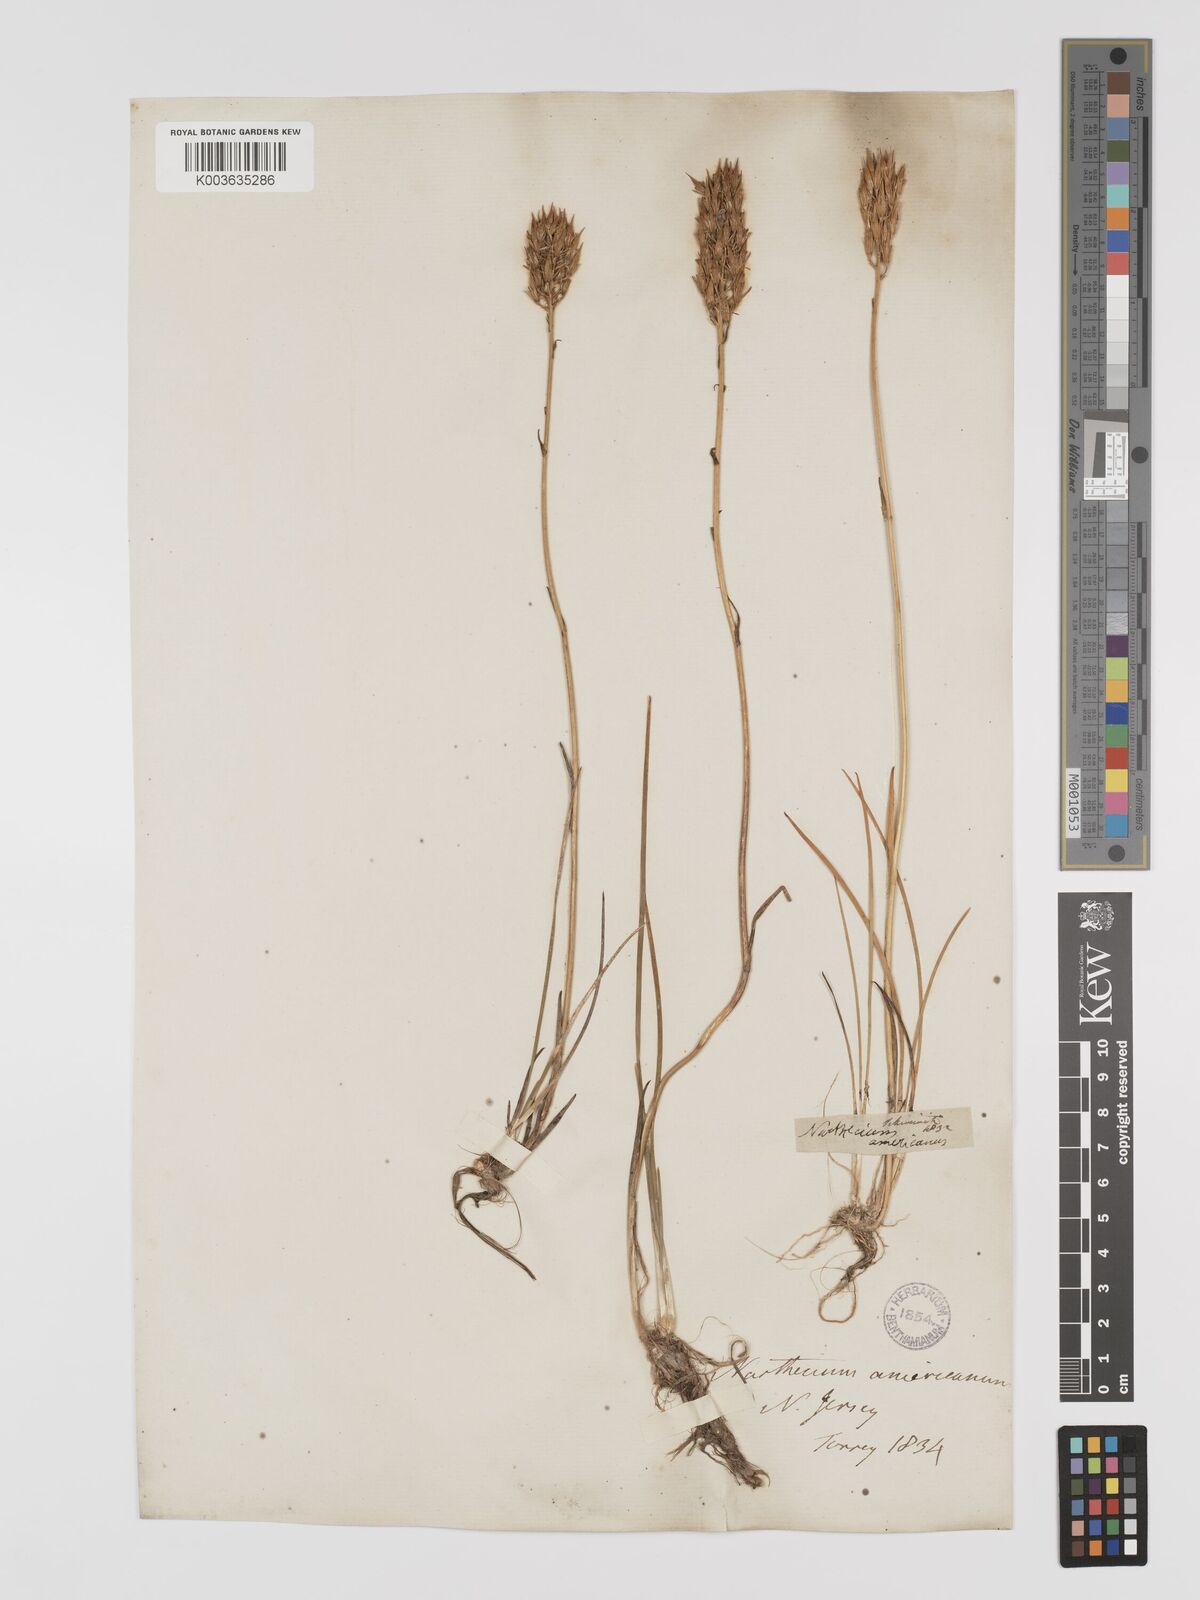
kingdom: Plantae
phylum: Tracheophyta
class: Liliopsida
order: Dioscoreales
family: Nartheciaceae
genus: Narthecium
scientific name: Narthecium americanum
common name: Bog-asphodel
